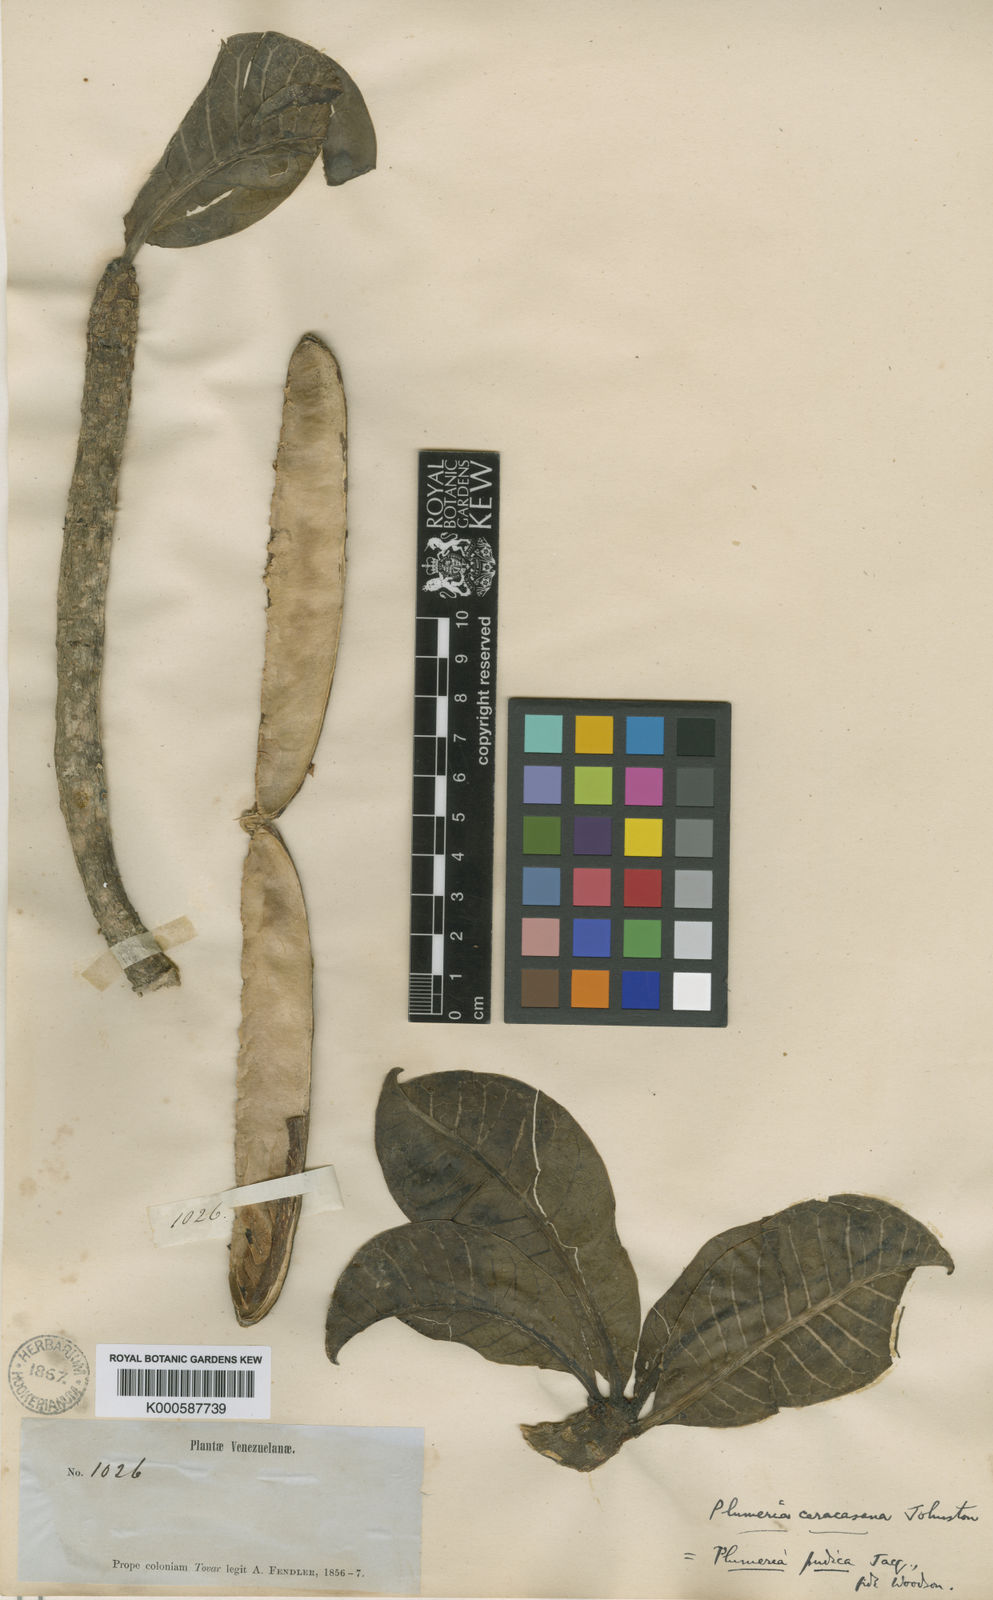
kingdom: Plantae
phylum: Tracheophyta
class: Magnoliopsida
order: Gentianales
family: Apocynaceae
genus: Plumeria
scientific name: Plumeria pudica
